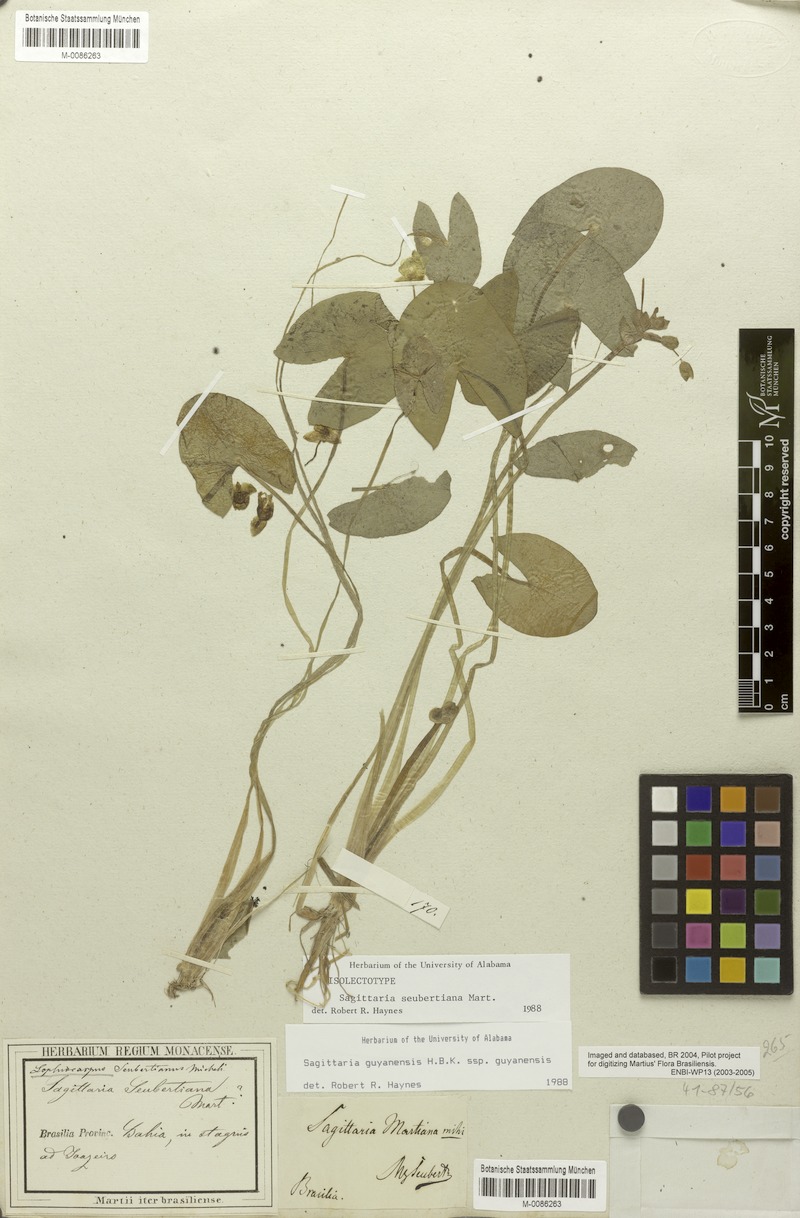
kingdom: Plantae
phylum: Tracheophyta
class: Liliopsida
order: Alismatales
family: Alismataceae
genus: Sagittaria
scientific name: Sagittaria guayanensis
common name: Guyanese arrowhead
